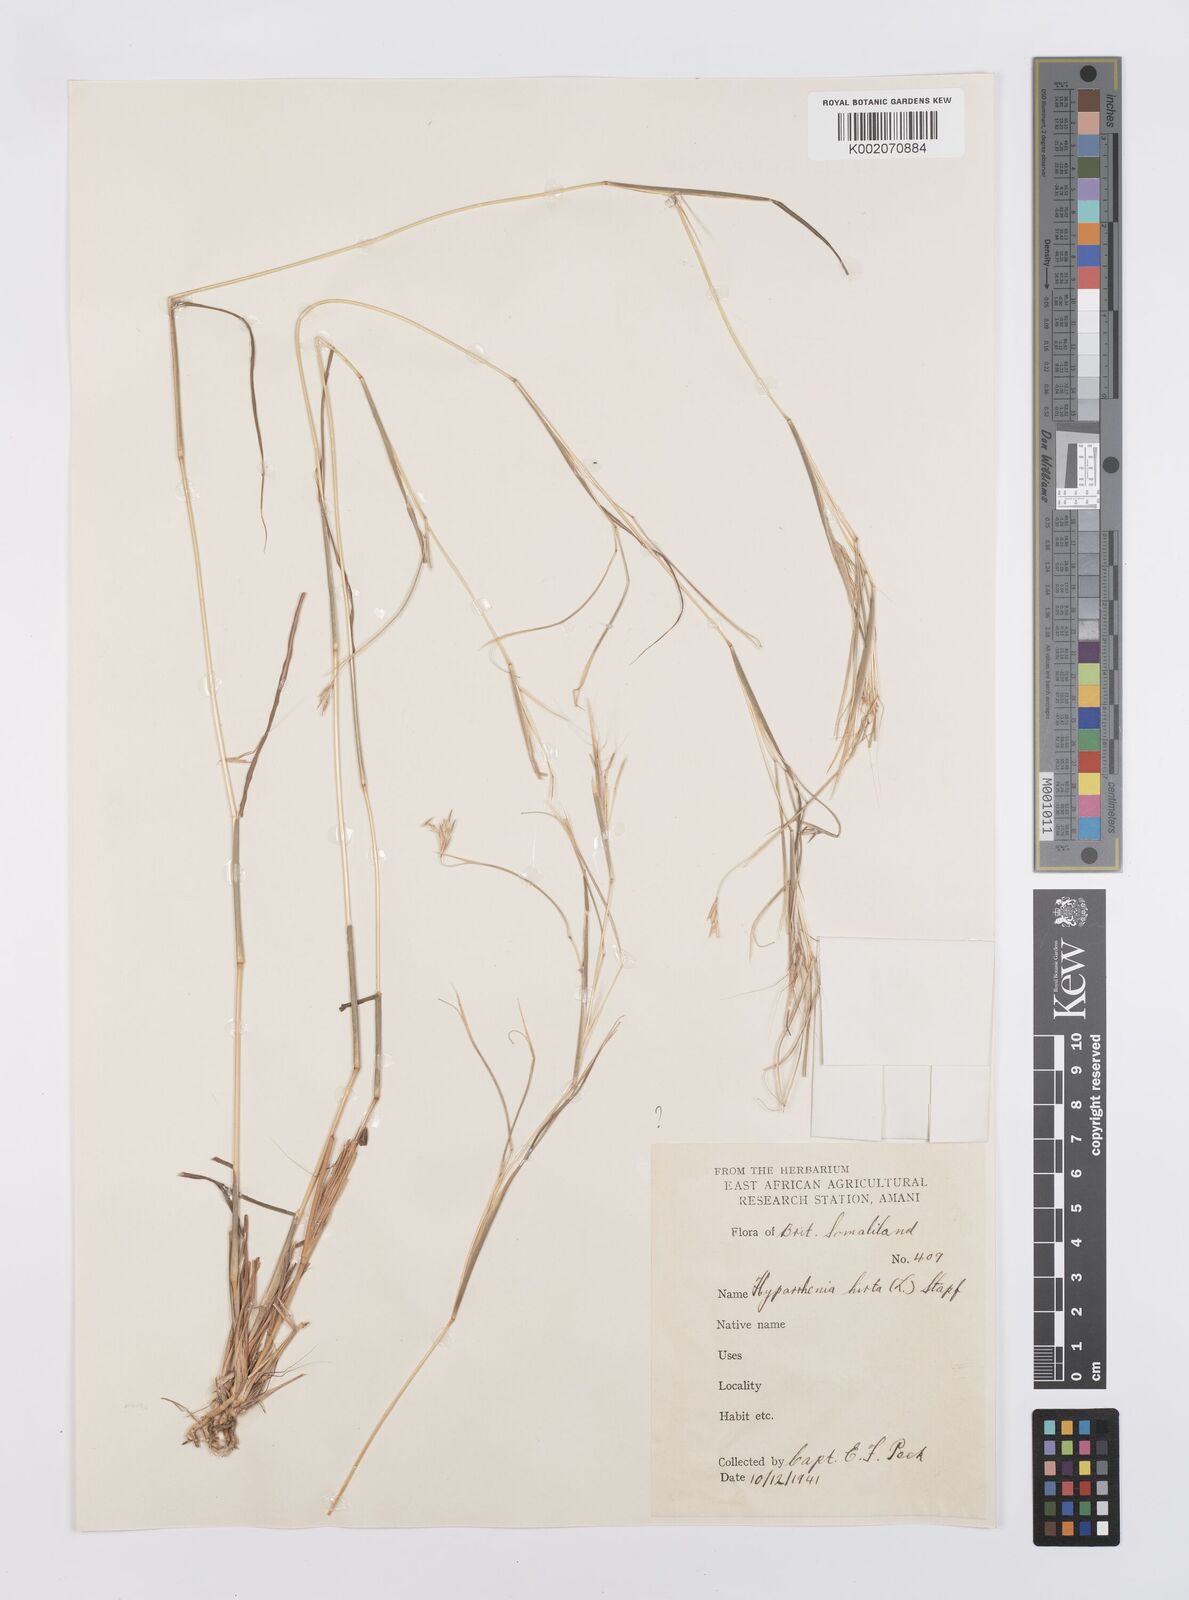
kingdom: Plantae
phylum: Tracheophyta
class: Liliopsida
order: Poales
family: Poaceae
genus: Hyparrhenia
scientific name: Hyparrhenia hirta
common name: Thatching grass
